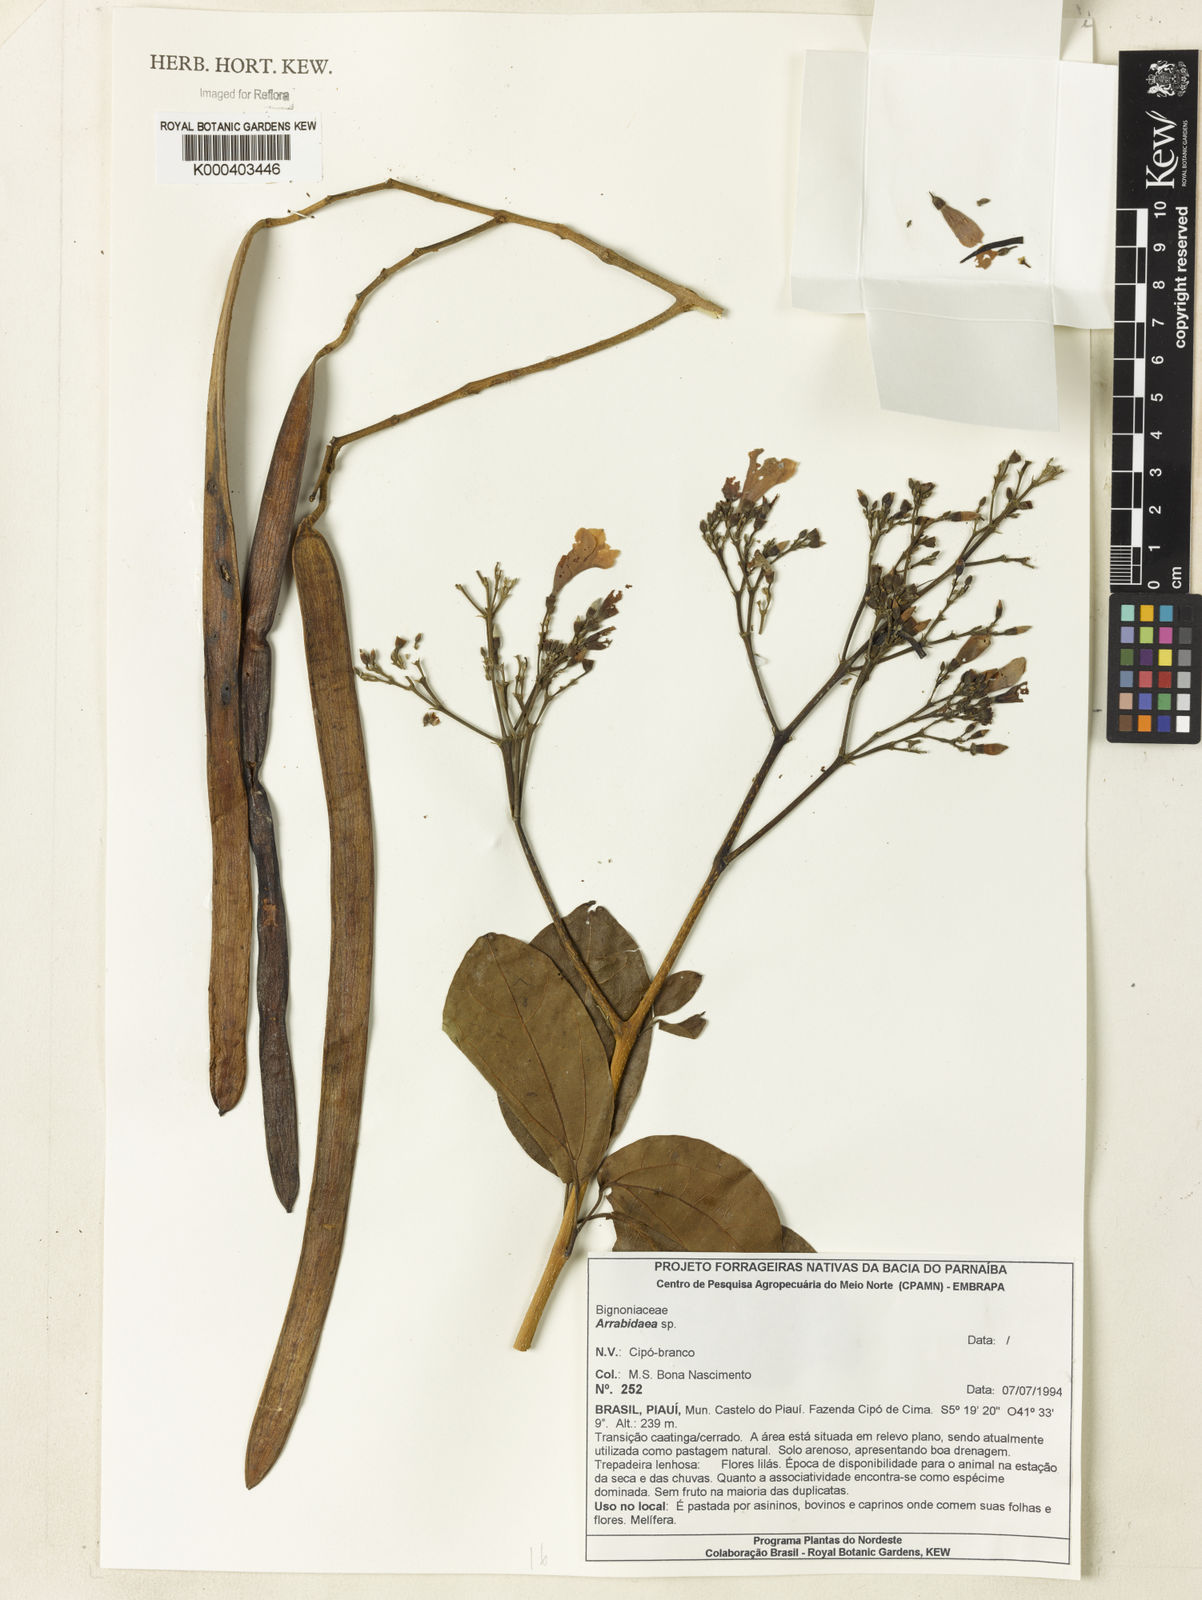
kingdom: Plantae
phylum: Tracheophyta
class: Magnoliopsida
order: Rosales
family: Rhamnaceae
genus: Arrabidaea
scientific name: Arrabidaea
